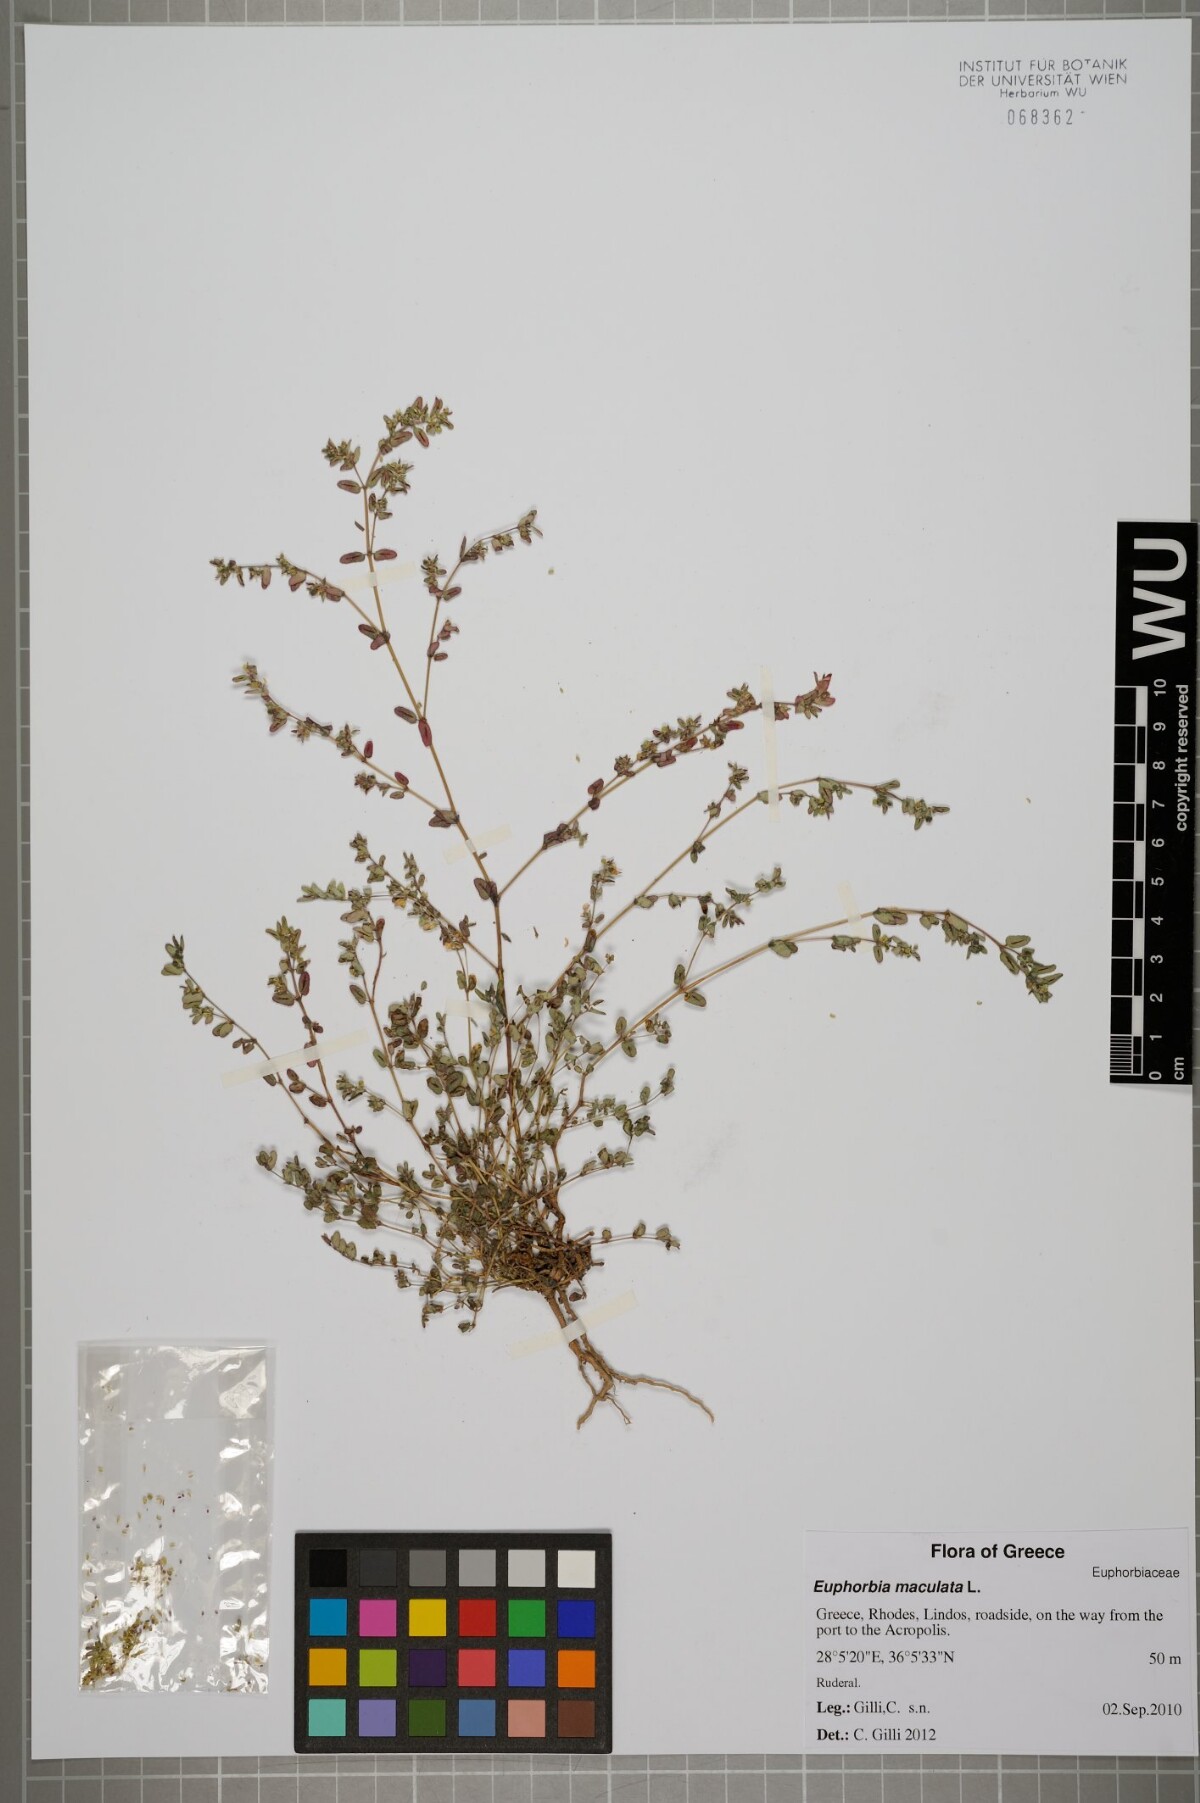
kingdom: Plantae
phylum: Tracheophyta
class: Magnoliopsida
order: Malpighiales
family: Euphorbiaceae
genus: Euphorbia
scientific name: Euphorbia maculata
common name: Spotted spurge
